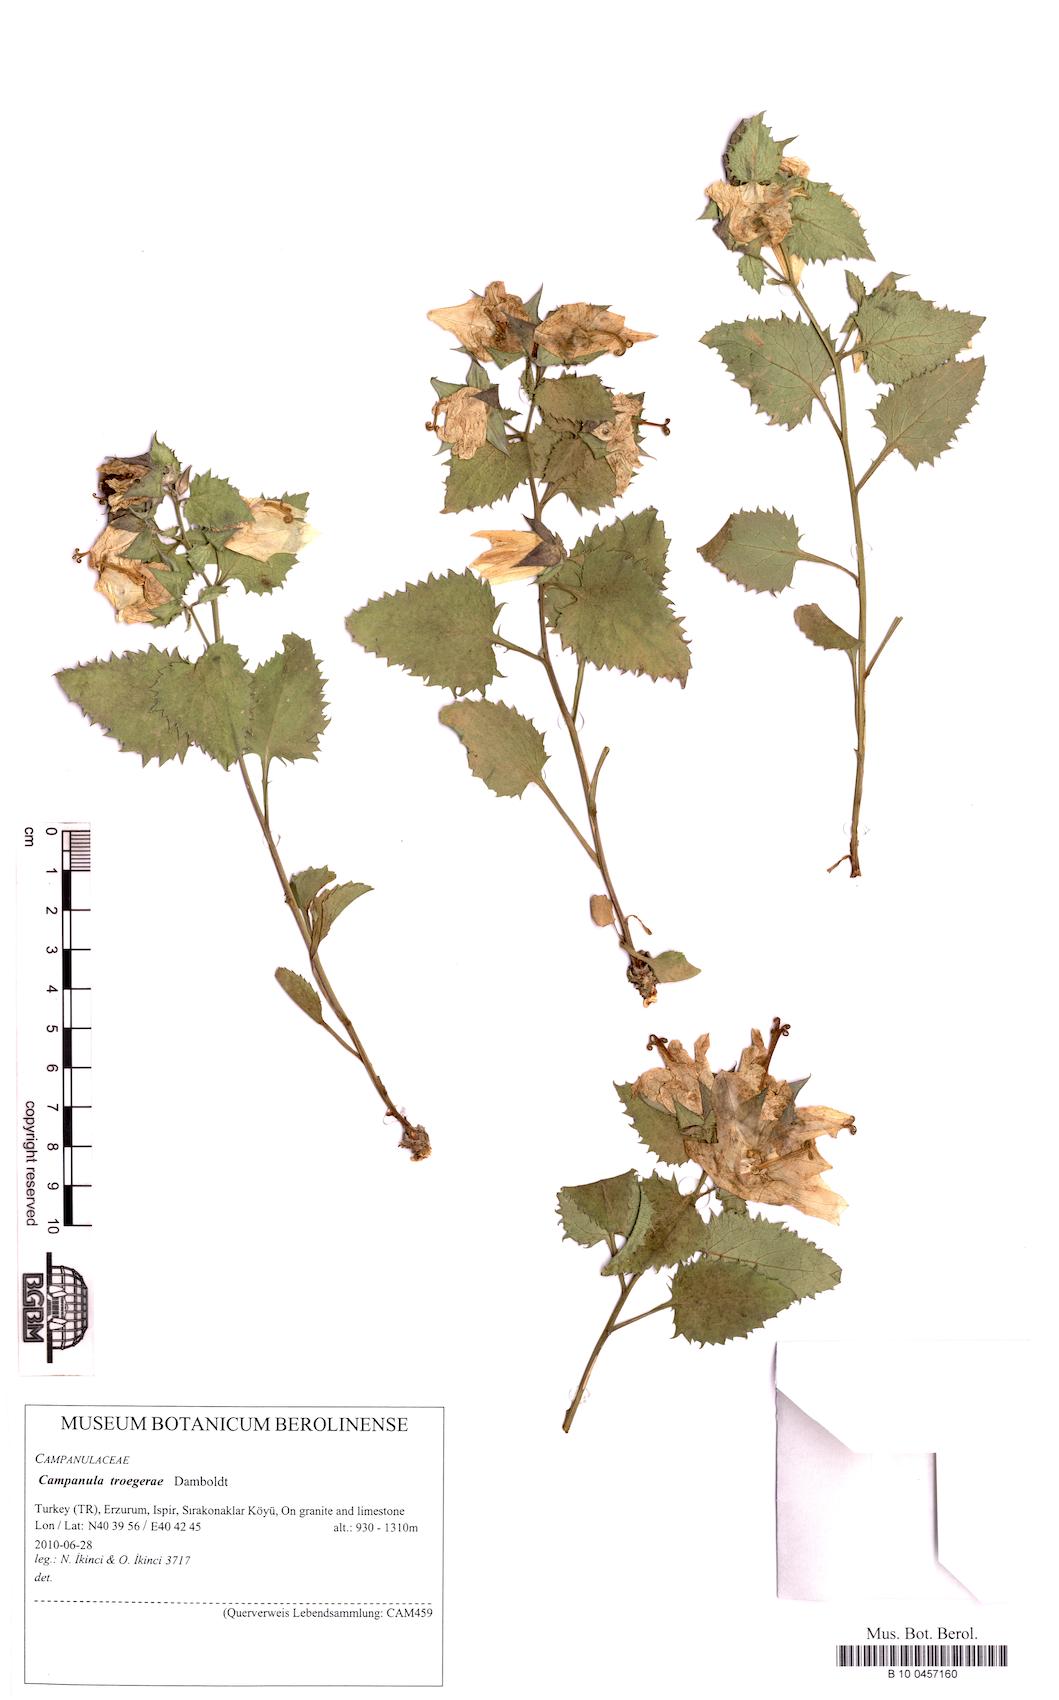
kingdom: Plantae
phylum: Tracheophyta
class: Magnoliopsida
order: Asterales
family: Campanulaceae
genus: Campanula
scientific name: Campanula troegerae
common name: Bellflower
